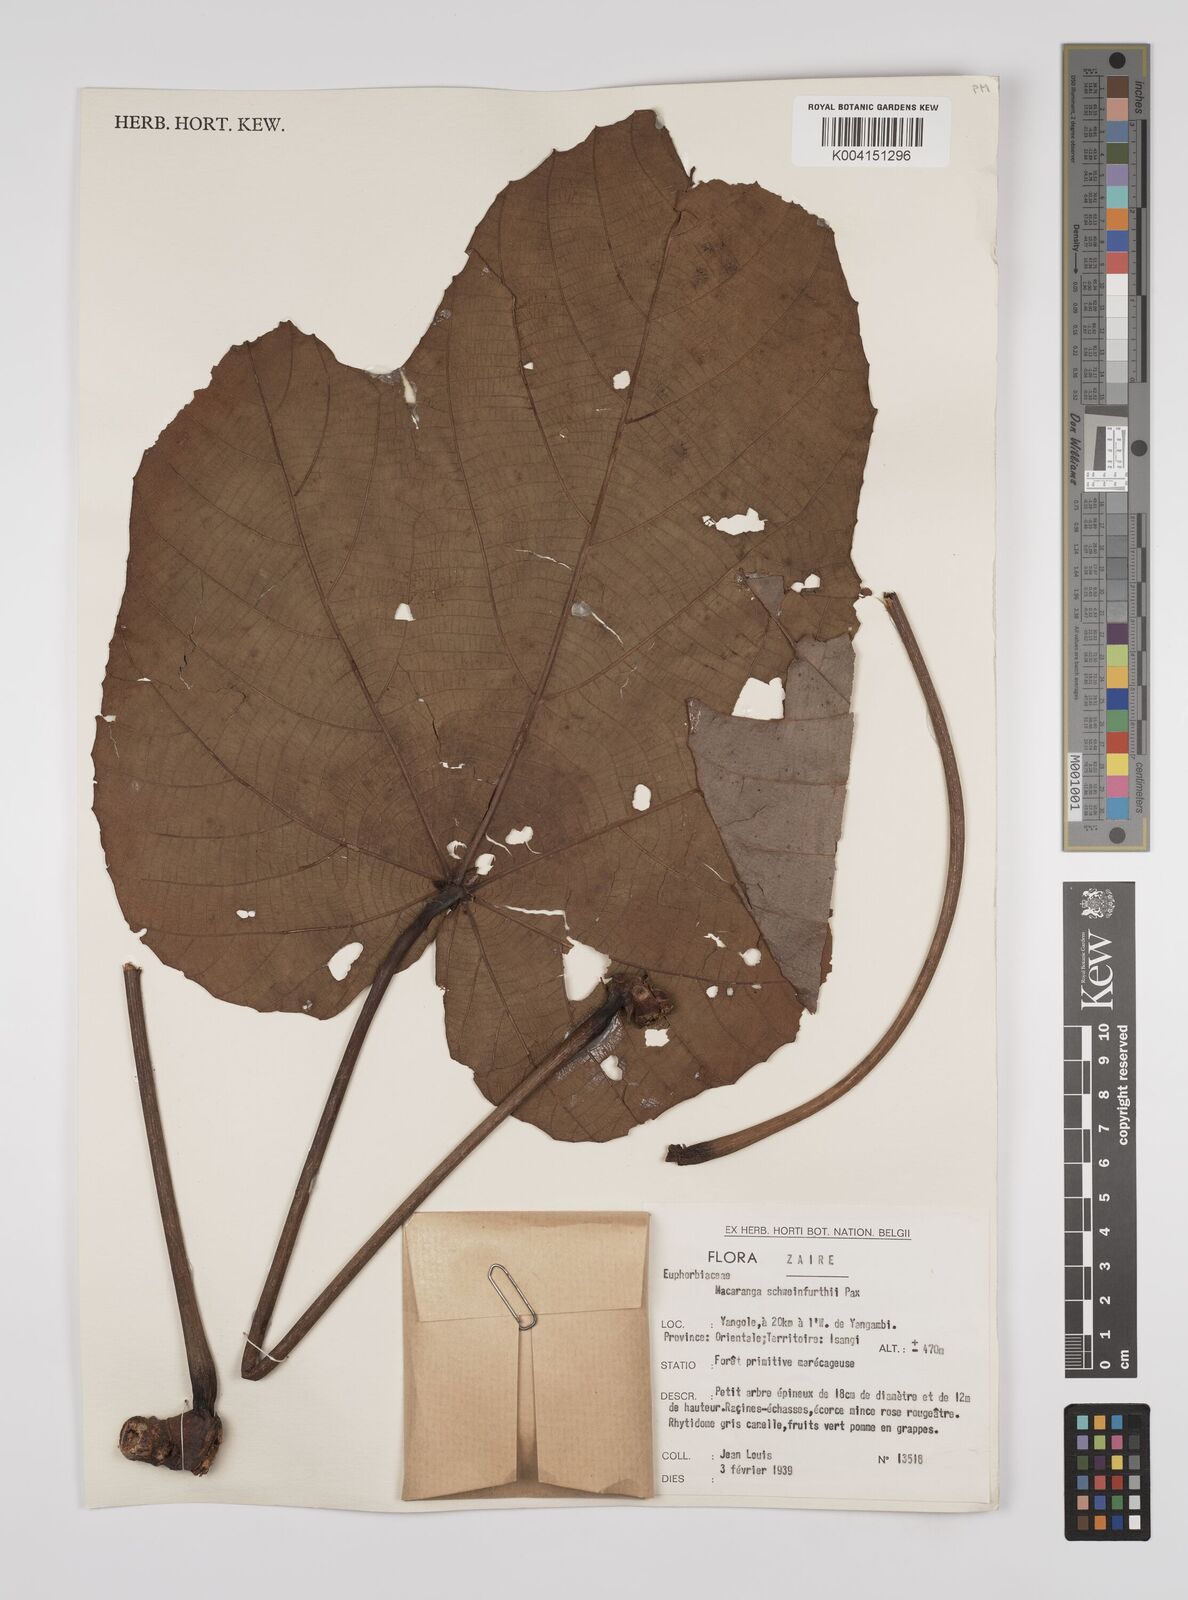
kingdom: Plantae
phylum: Tracheophyta
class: Magnoliopsida
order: Malpighiales
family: Euphorbiaceae
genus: Macaranga
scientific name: Macaranga schweinfurthii
